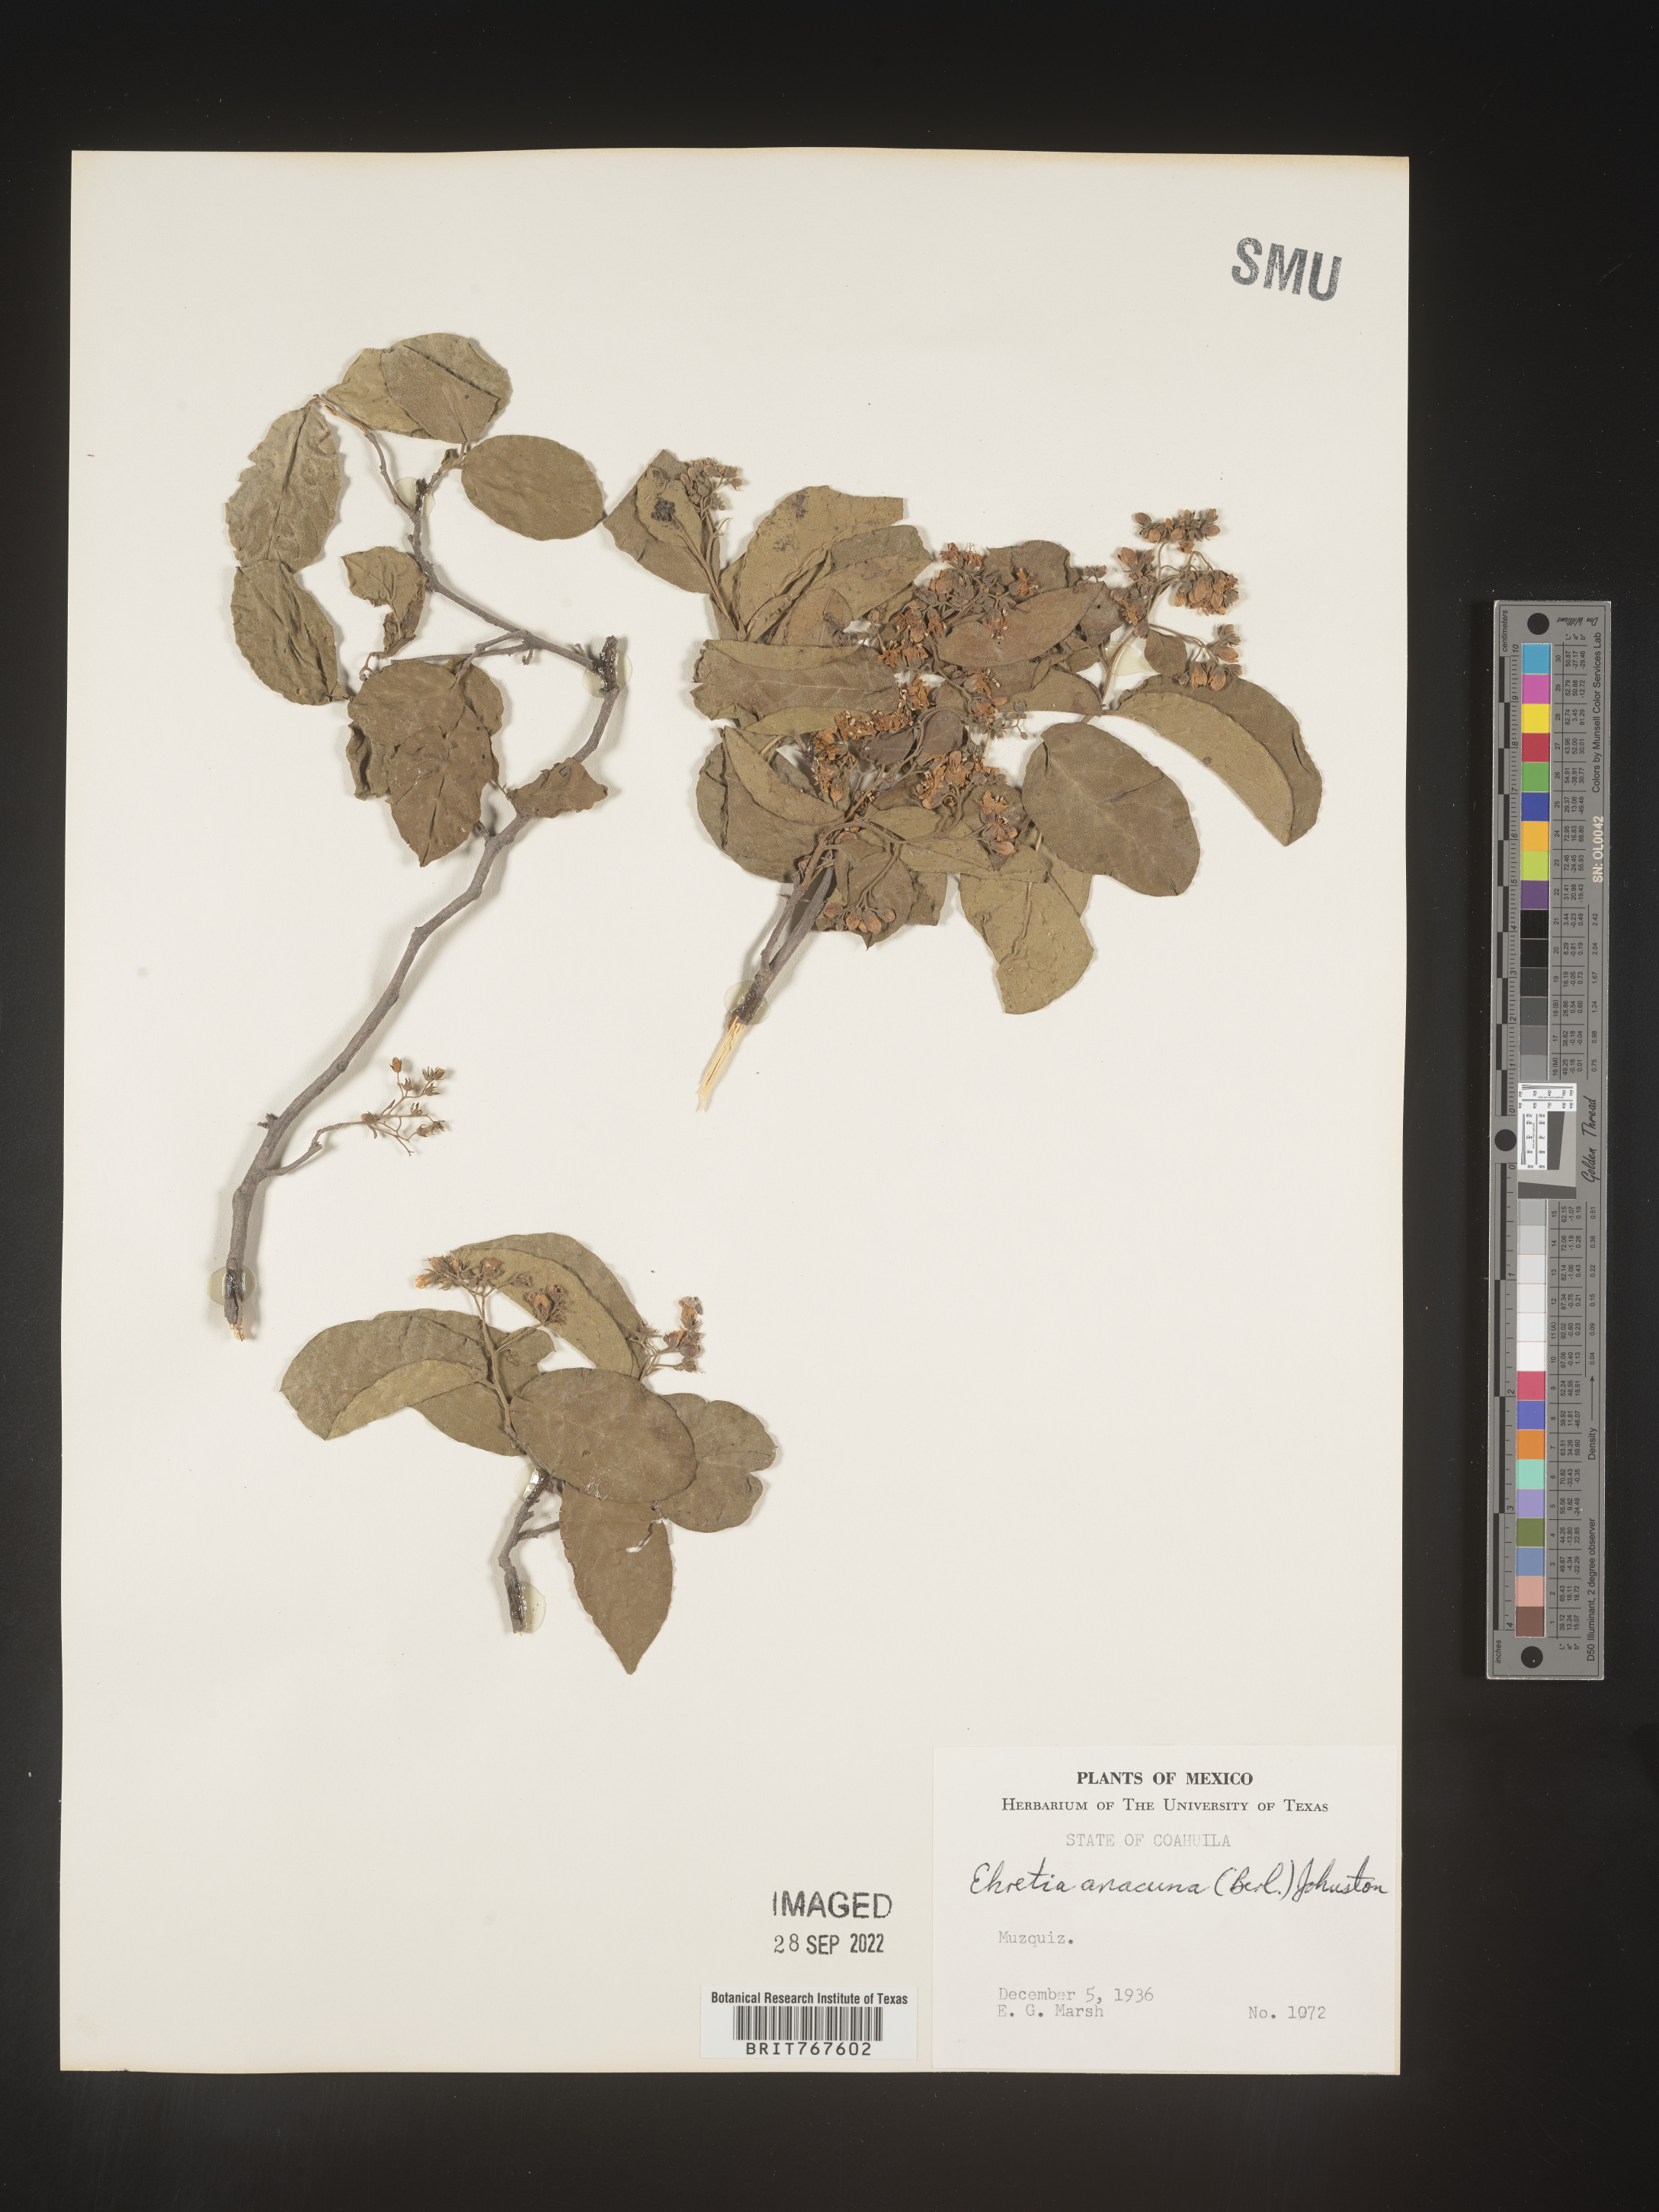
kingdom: Plantae
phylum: Tracheophyta
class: Magnoliopsida
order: Boraginales
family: Ehretiaceae
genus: Ehretia
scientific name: Ehretia
